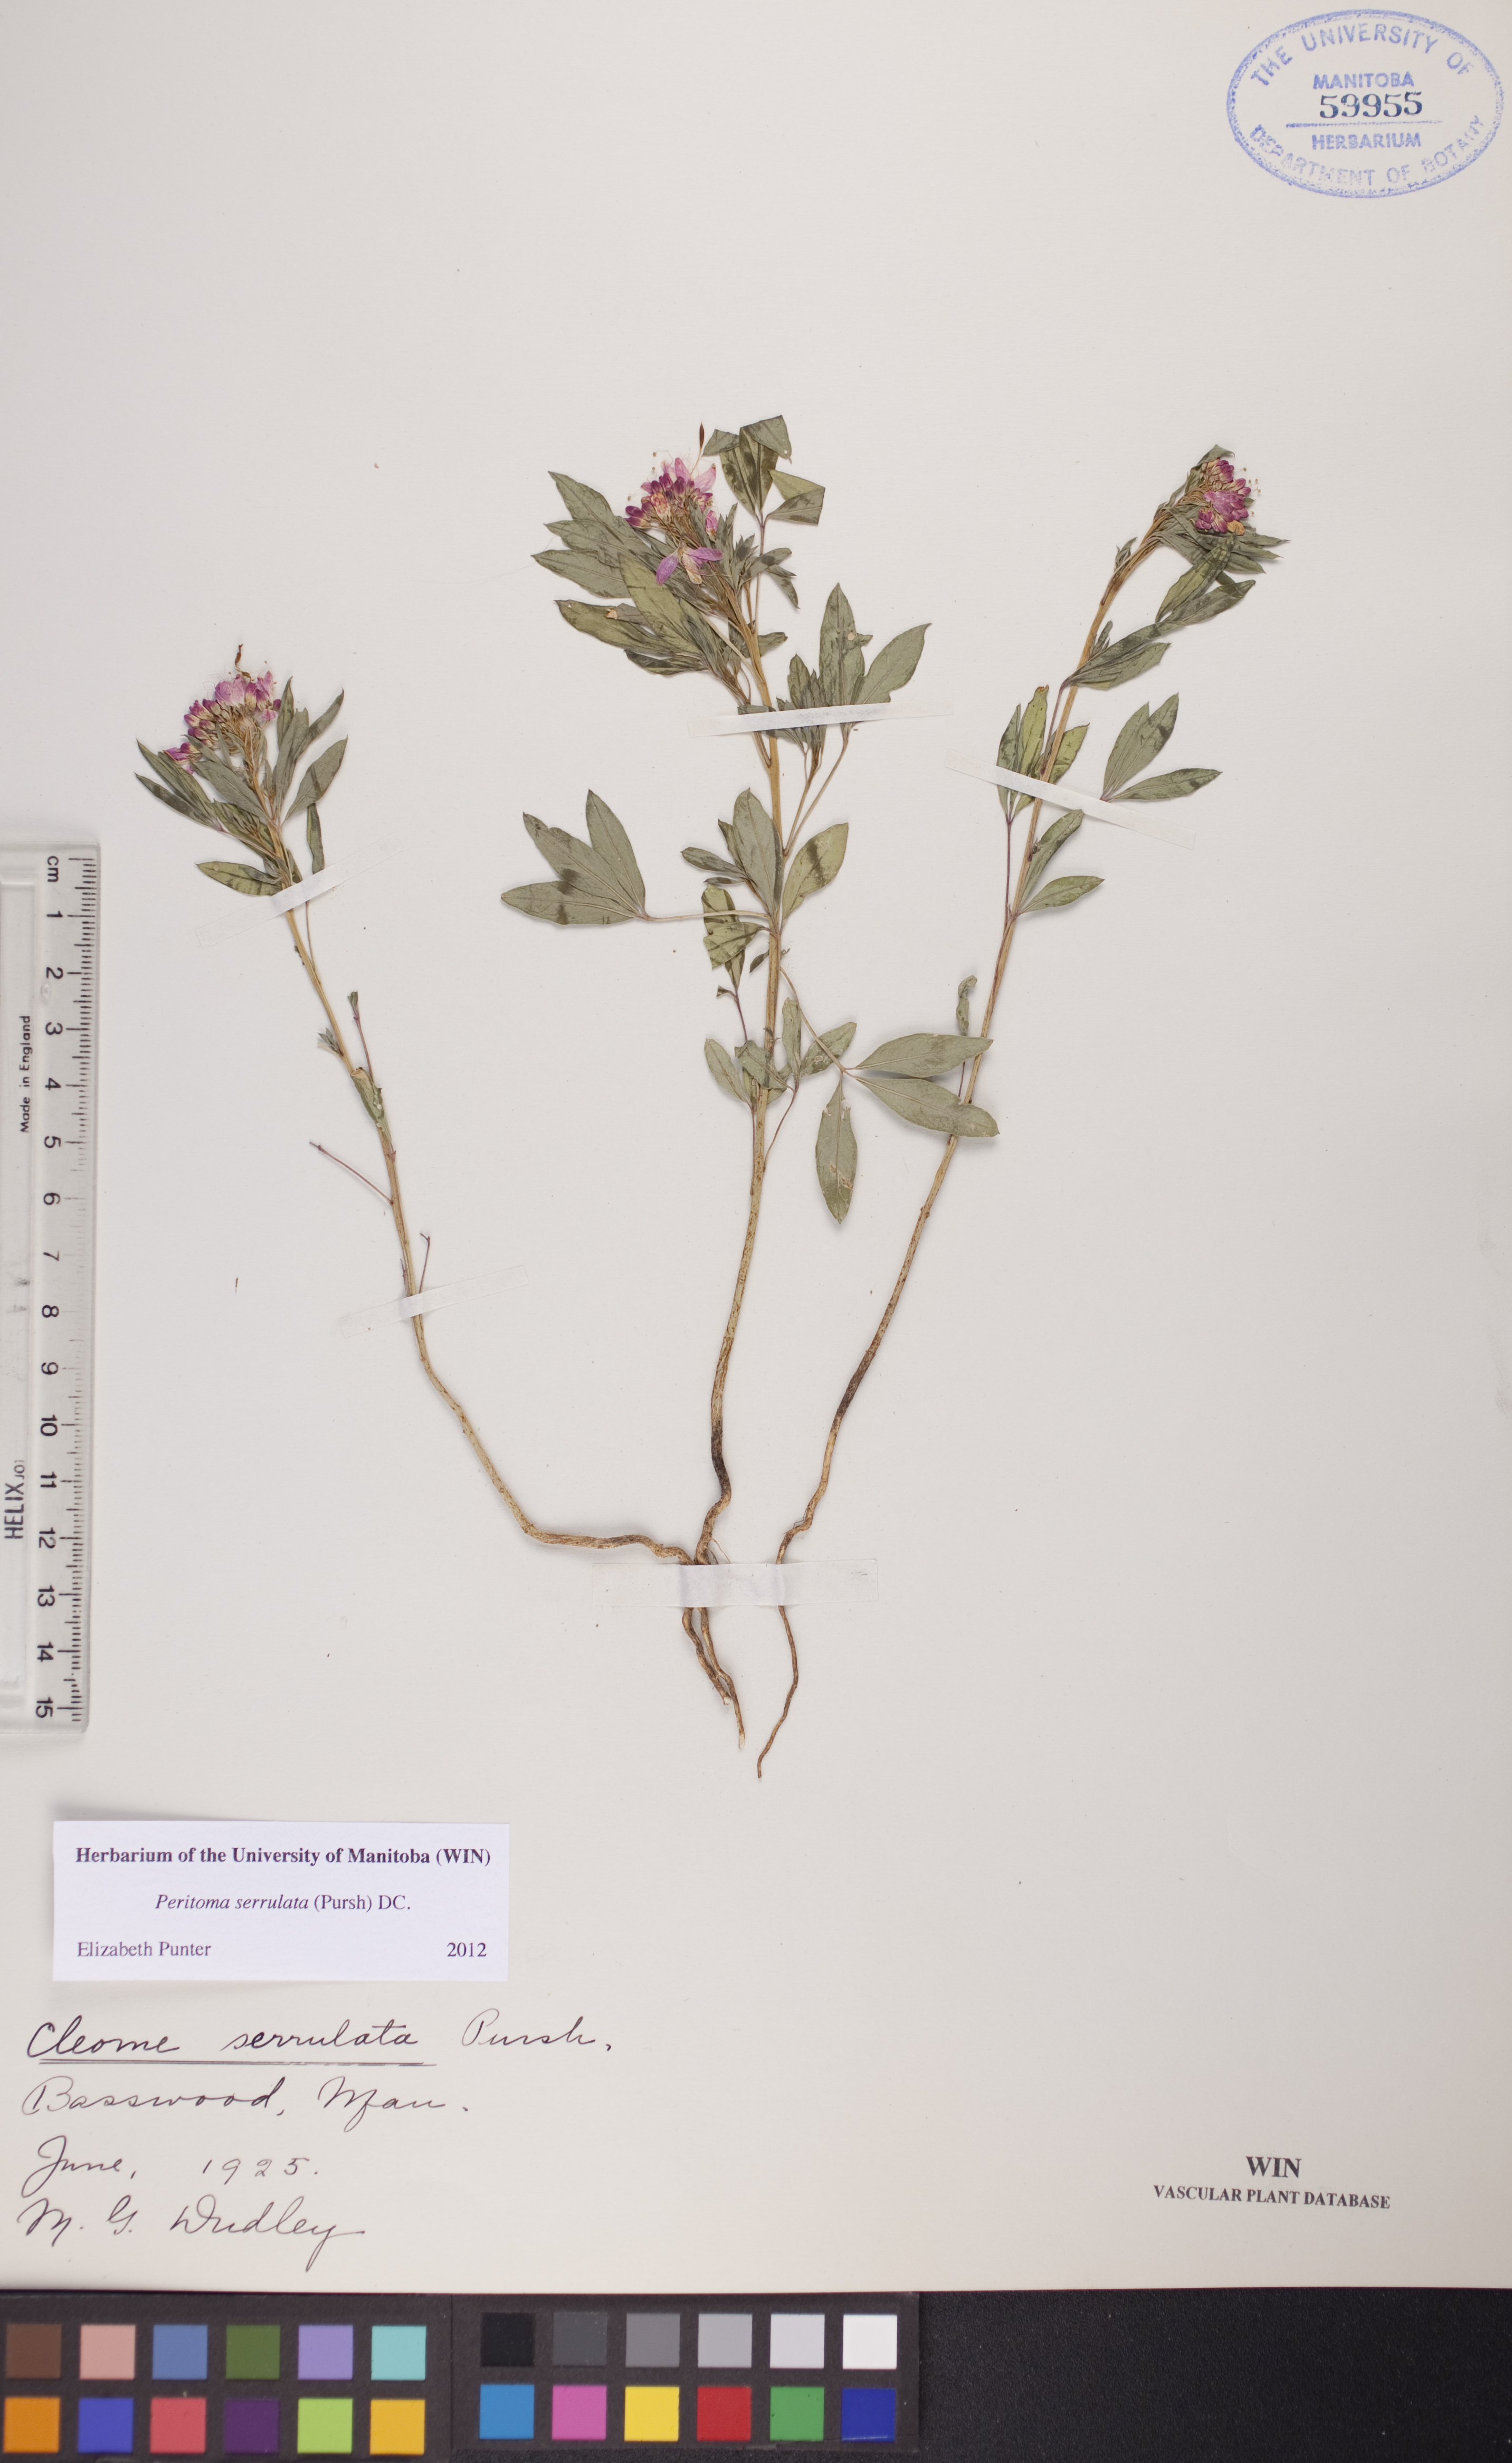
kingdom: Plantae
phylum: Tracheophyta
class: Magnoliopsida
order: Brassicales
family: Cleomaceae
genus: Cleomella
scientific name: Cleomella serrulata
